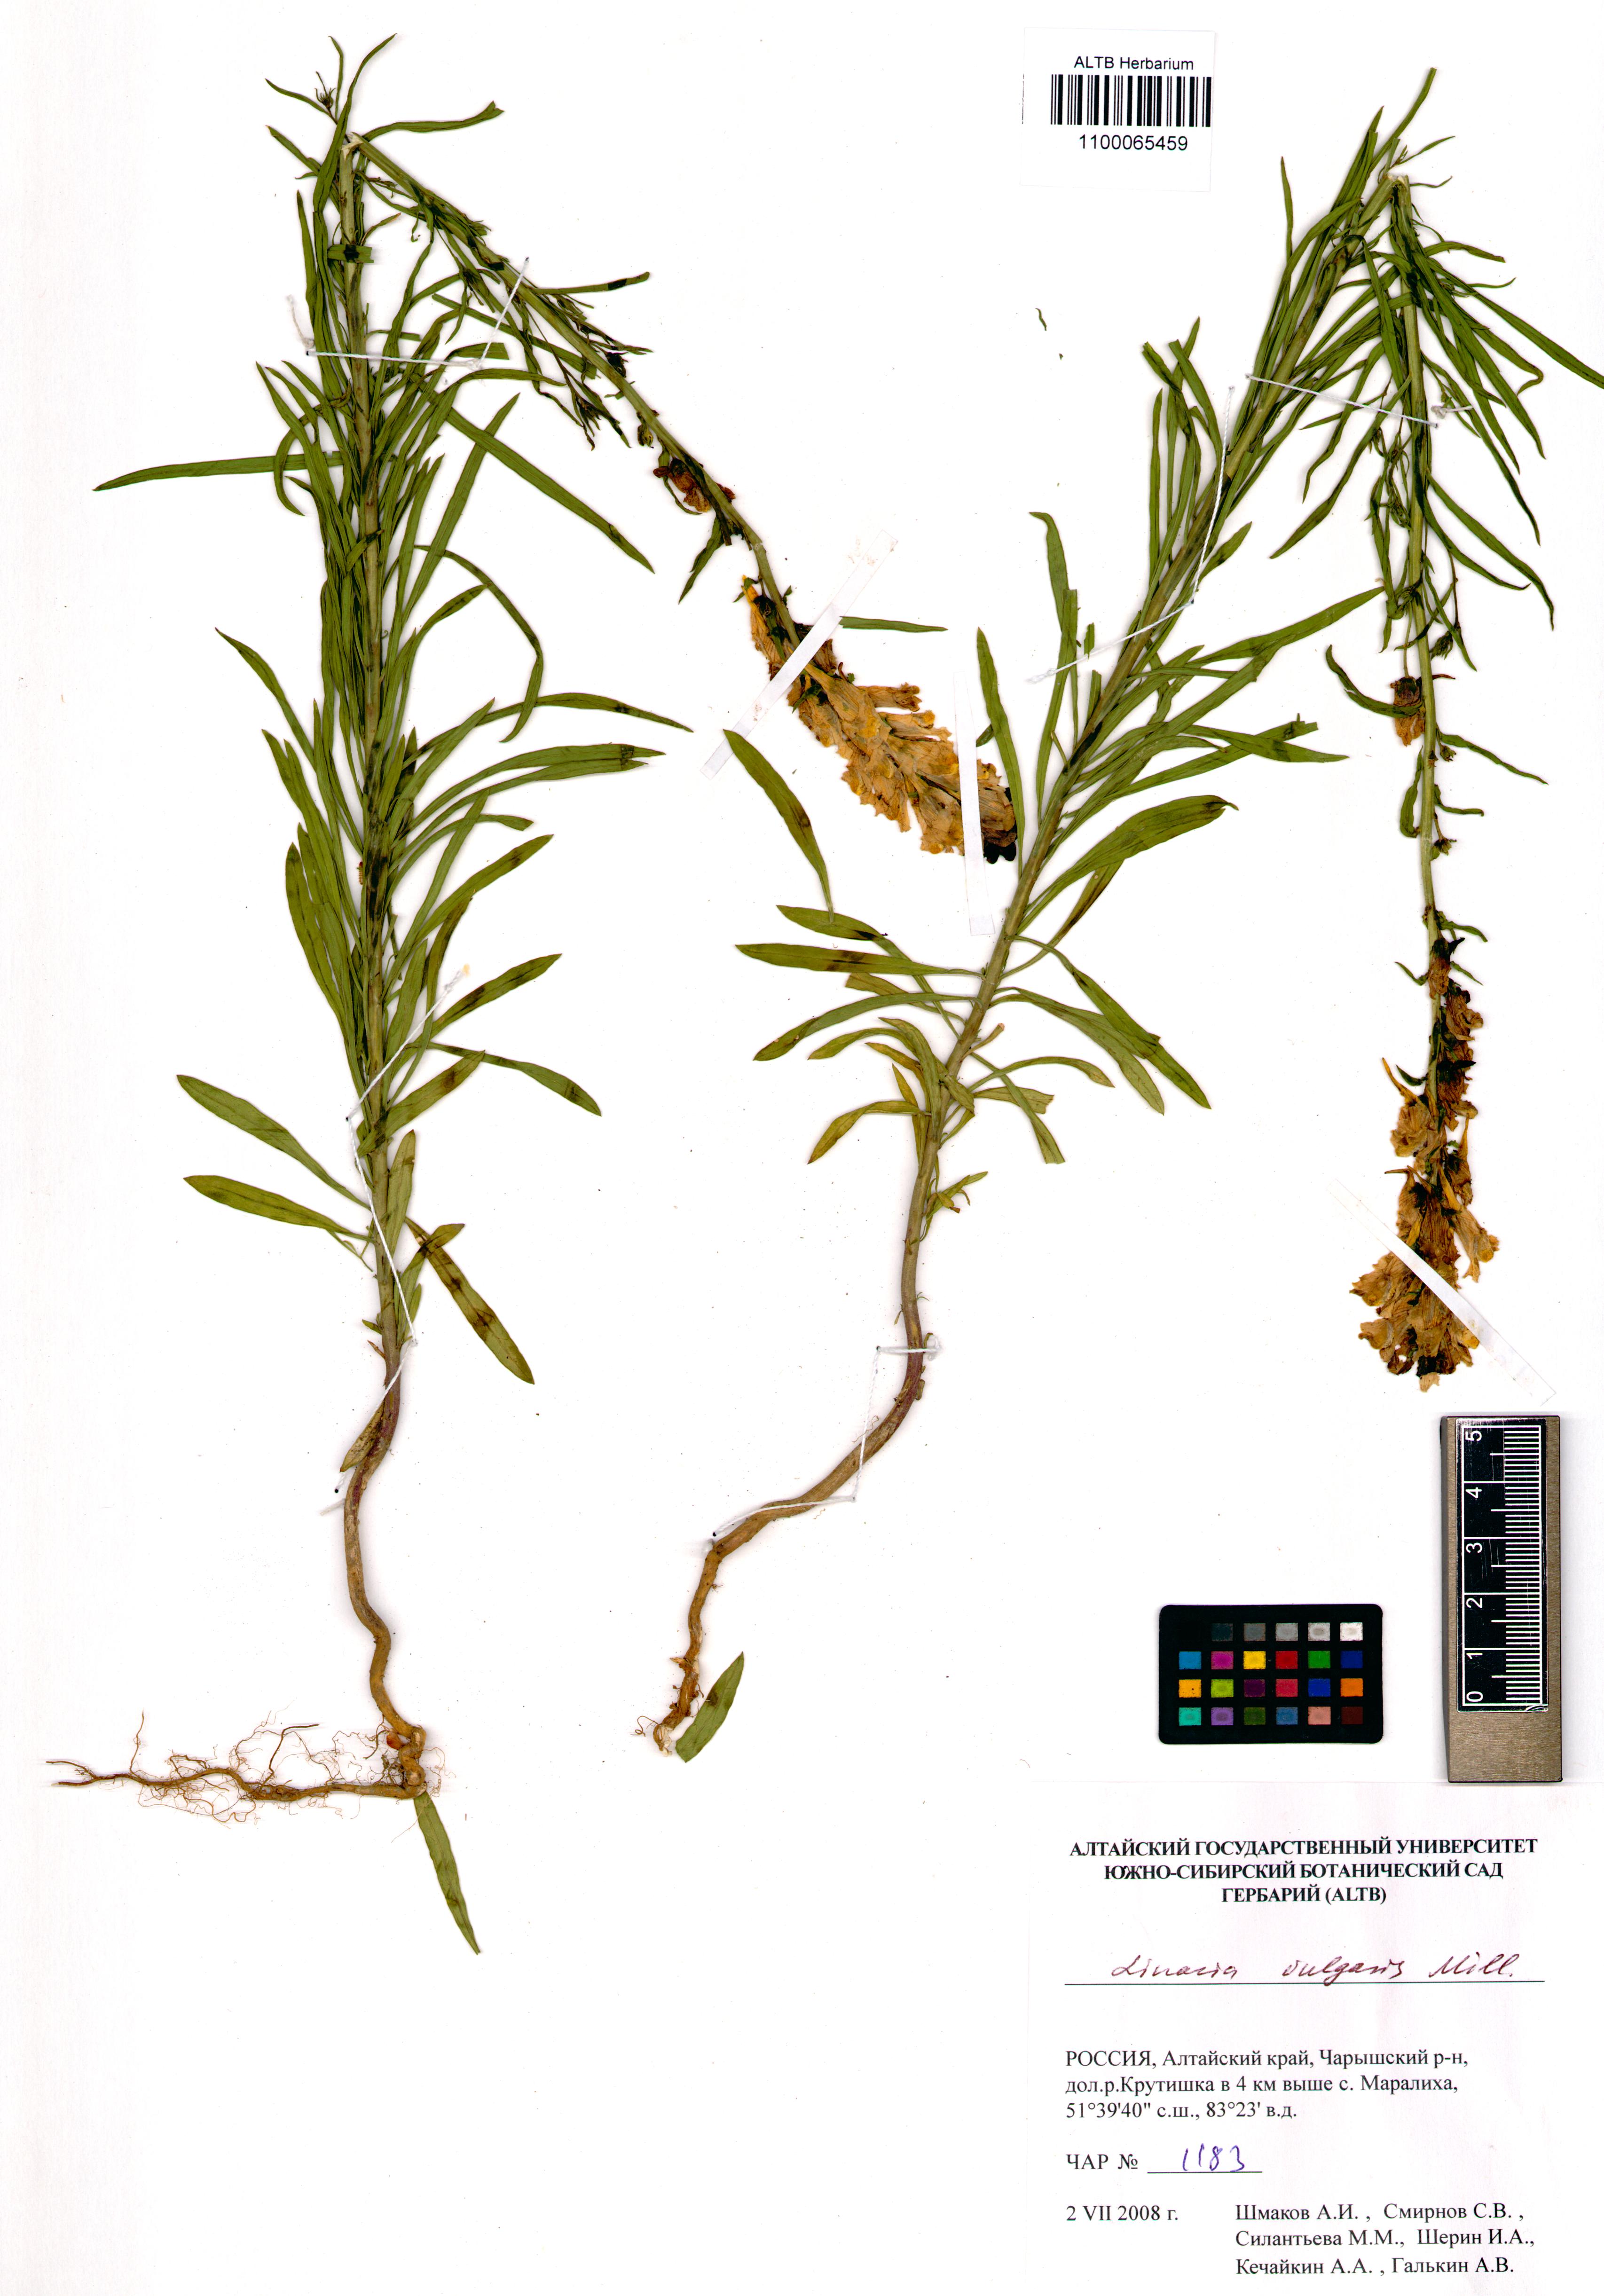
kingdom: Plantae
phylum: Tracheophyta
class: Magnoliopsida
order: Lamiales
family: Plantaginaceae
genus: Linaria
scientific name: Linaria vulgaris
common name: Butter and eggs
